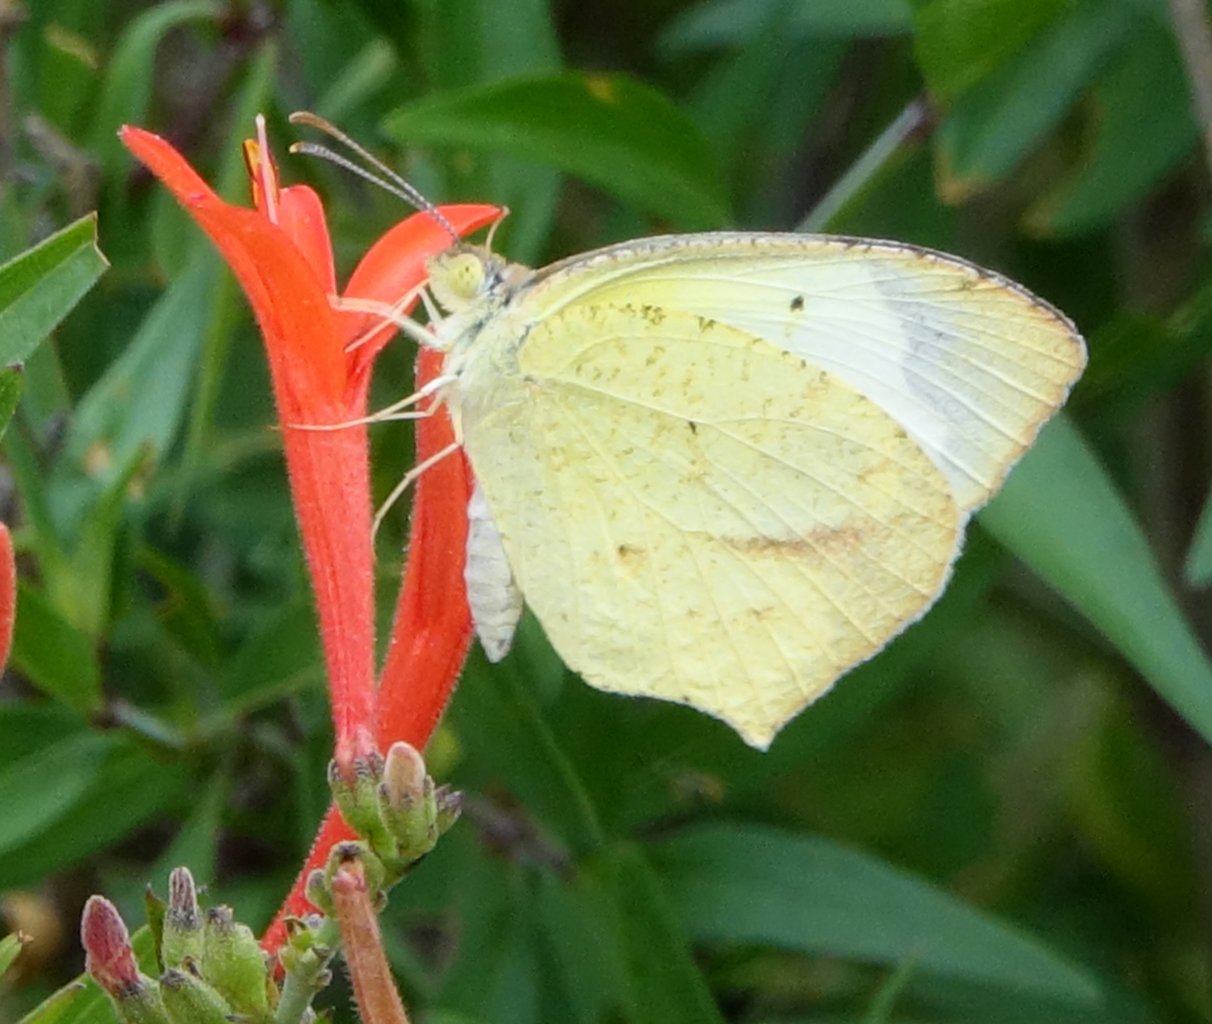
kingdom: Animalia
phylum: Arthropoda
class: Insecta
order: Lepidoptera
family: Pieridae
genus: Eurema
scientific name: Eurema mexicana
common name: Mexican Yellow
